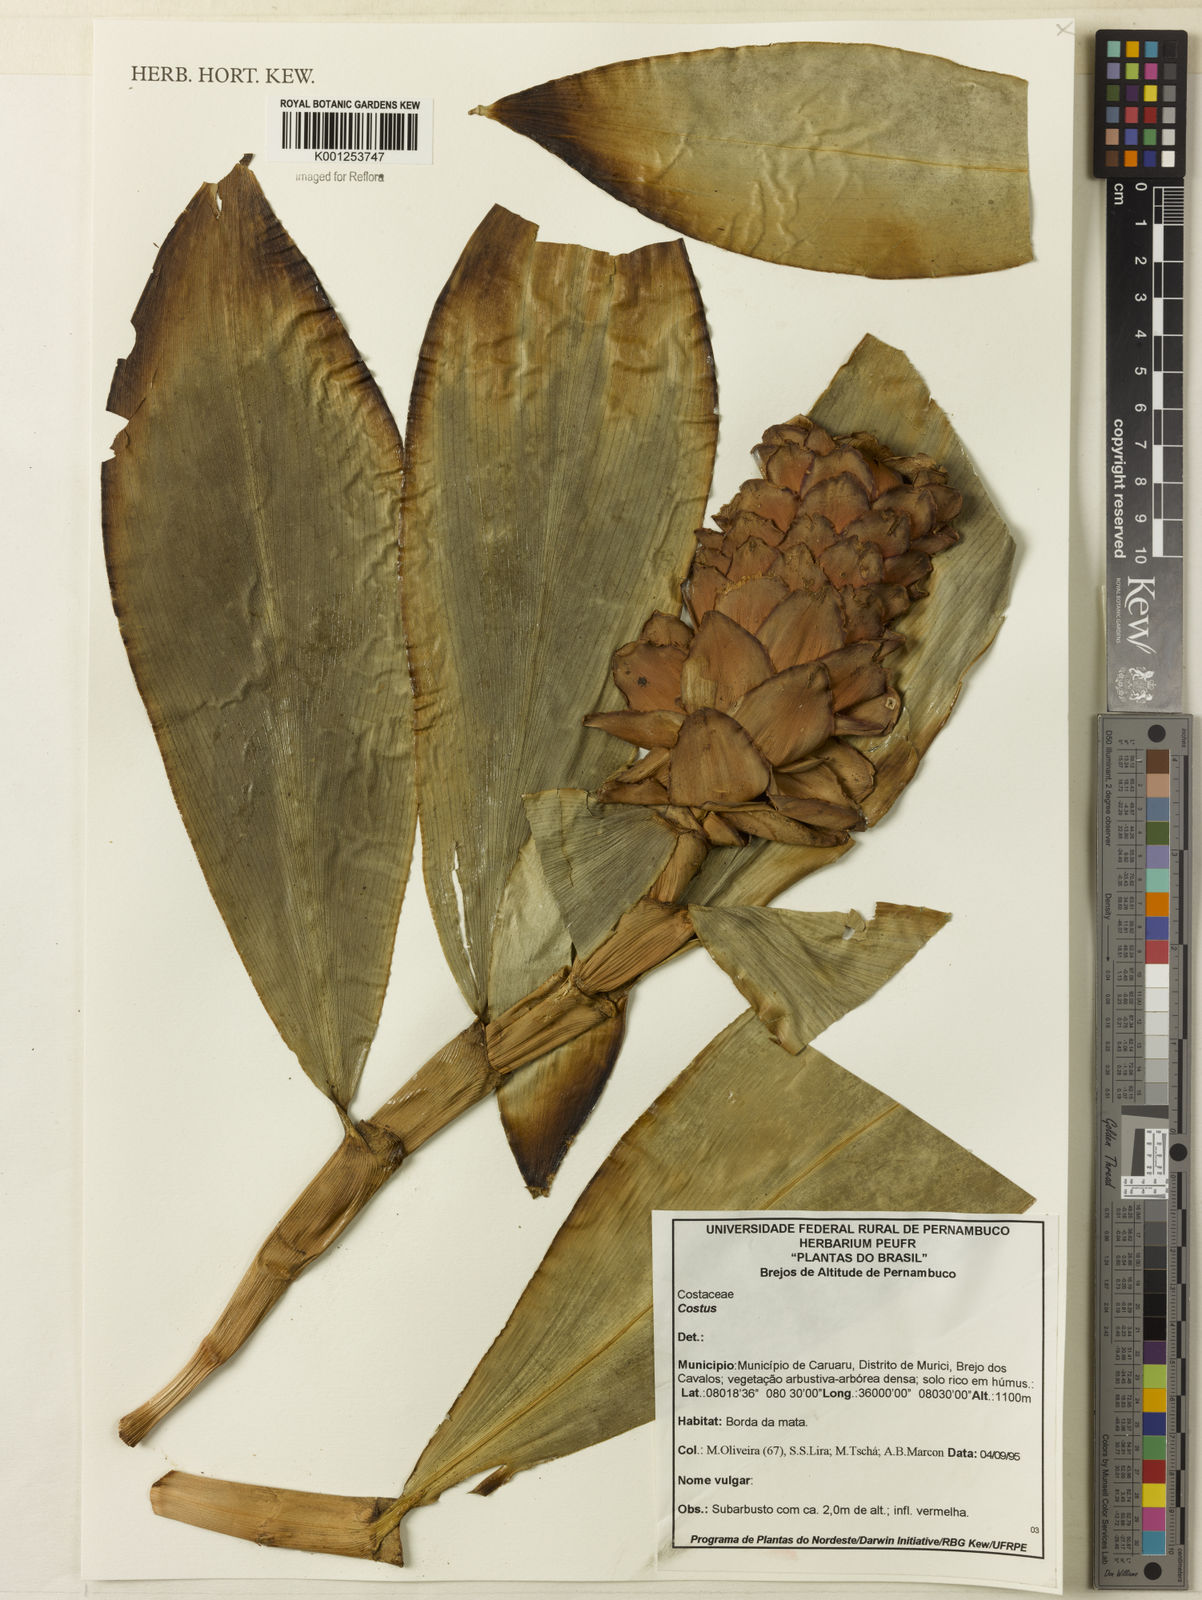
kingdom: Plantae
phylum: Tracheophyta
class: Liliopsida
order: Zingiberales
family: Costaceae
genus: Costus
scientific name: Costus
